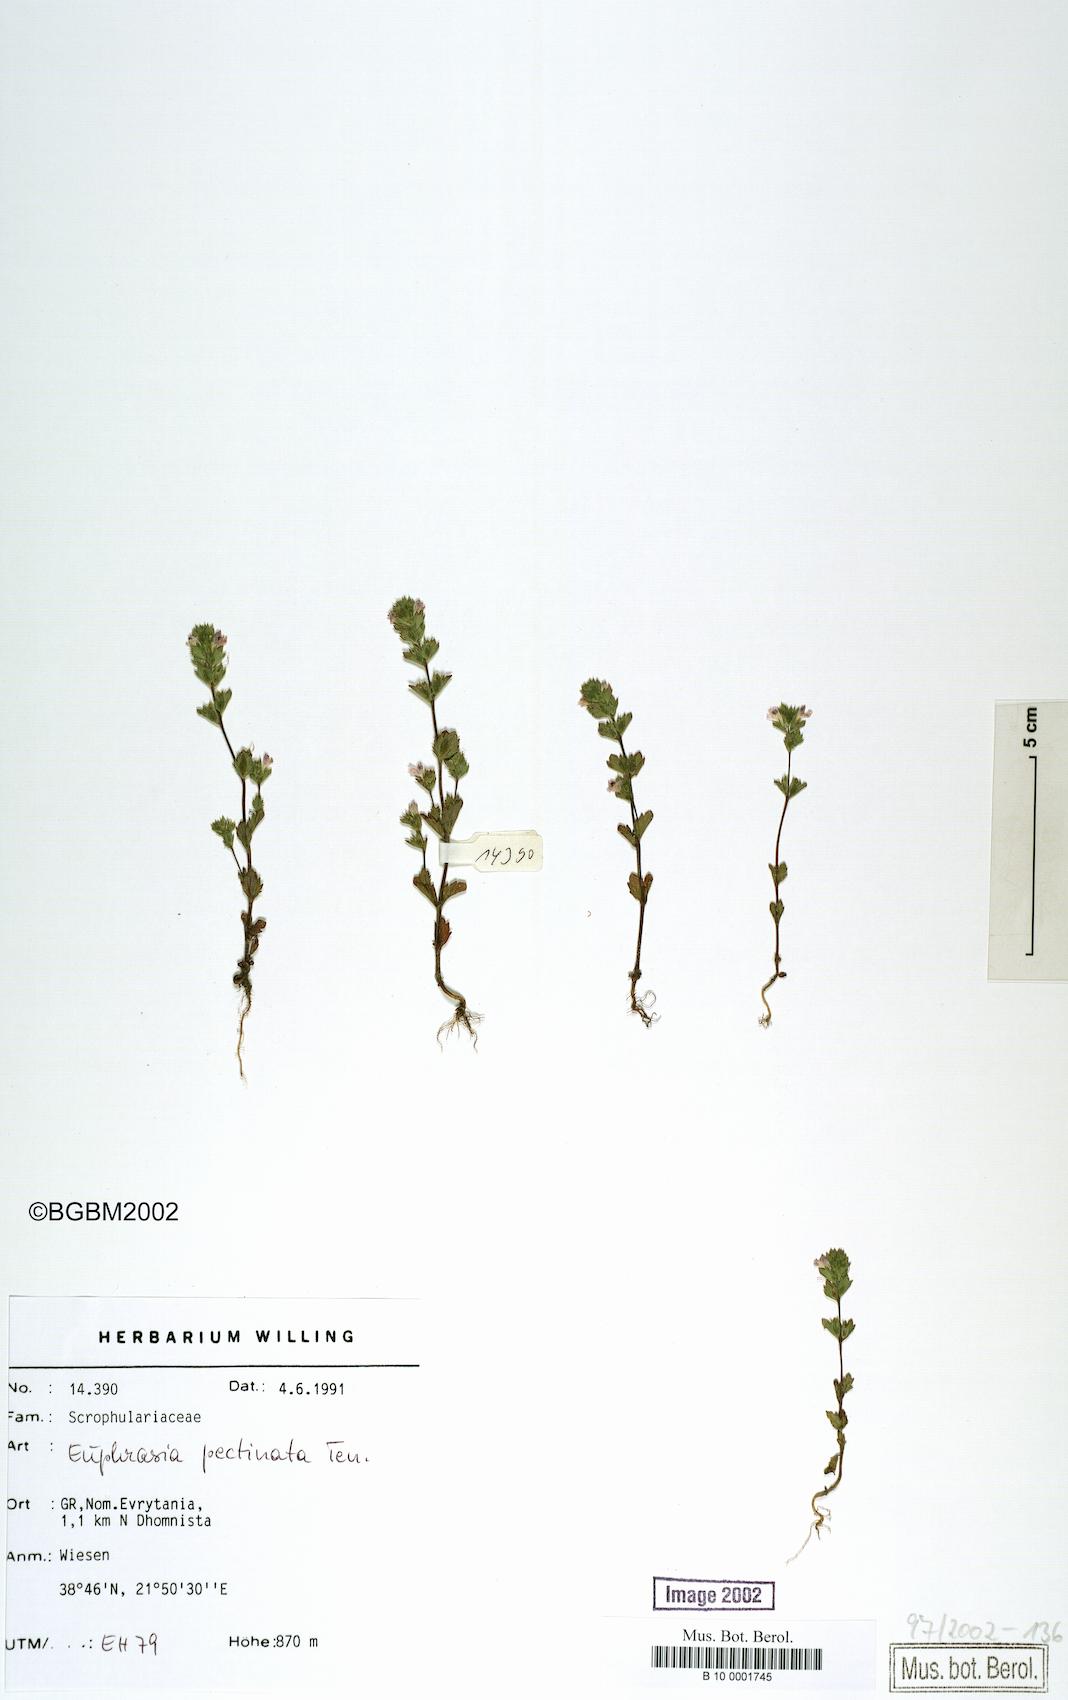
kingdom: Plantae
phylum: Tracheophyta
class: Magnoliopsida
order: Lamiales
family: Orobanchaceae
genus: Euphrasia
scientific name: Euphrasia pectinata
